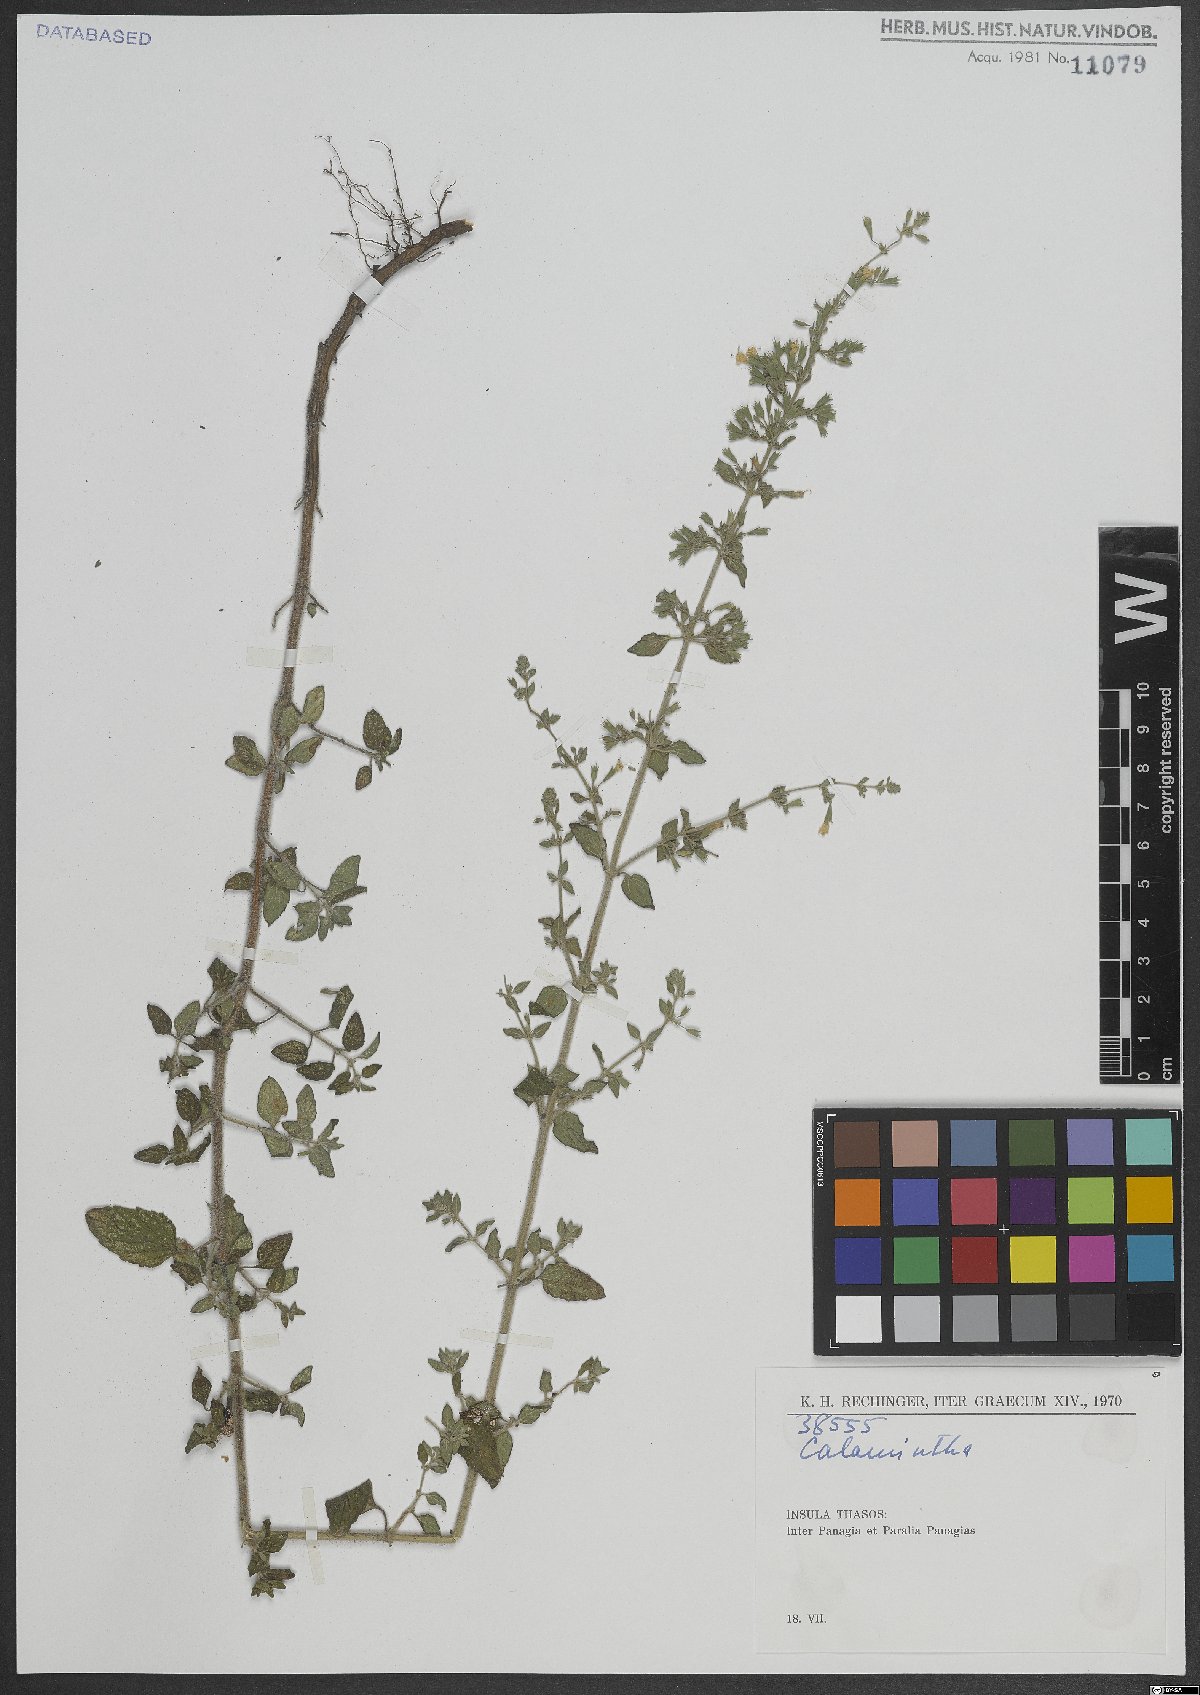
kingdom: Plantae
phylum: Tracheophyta
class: Magnoliopsida
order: Lamiales
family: Lamiaceae
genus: Calamintha
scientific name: Calamintha
